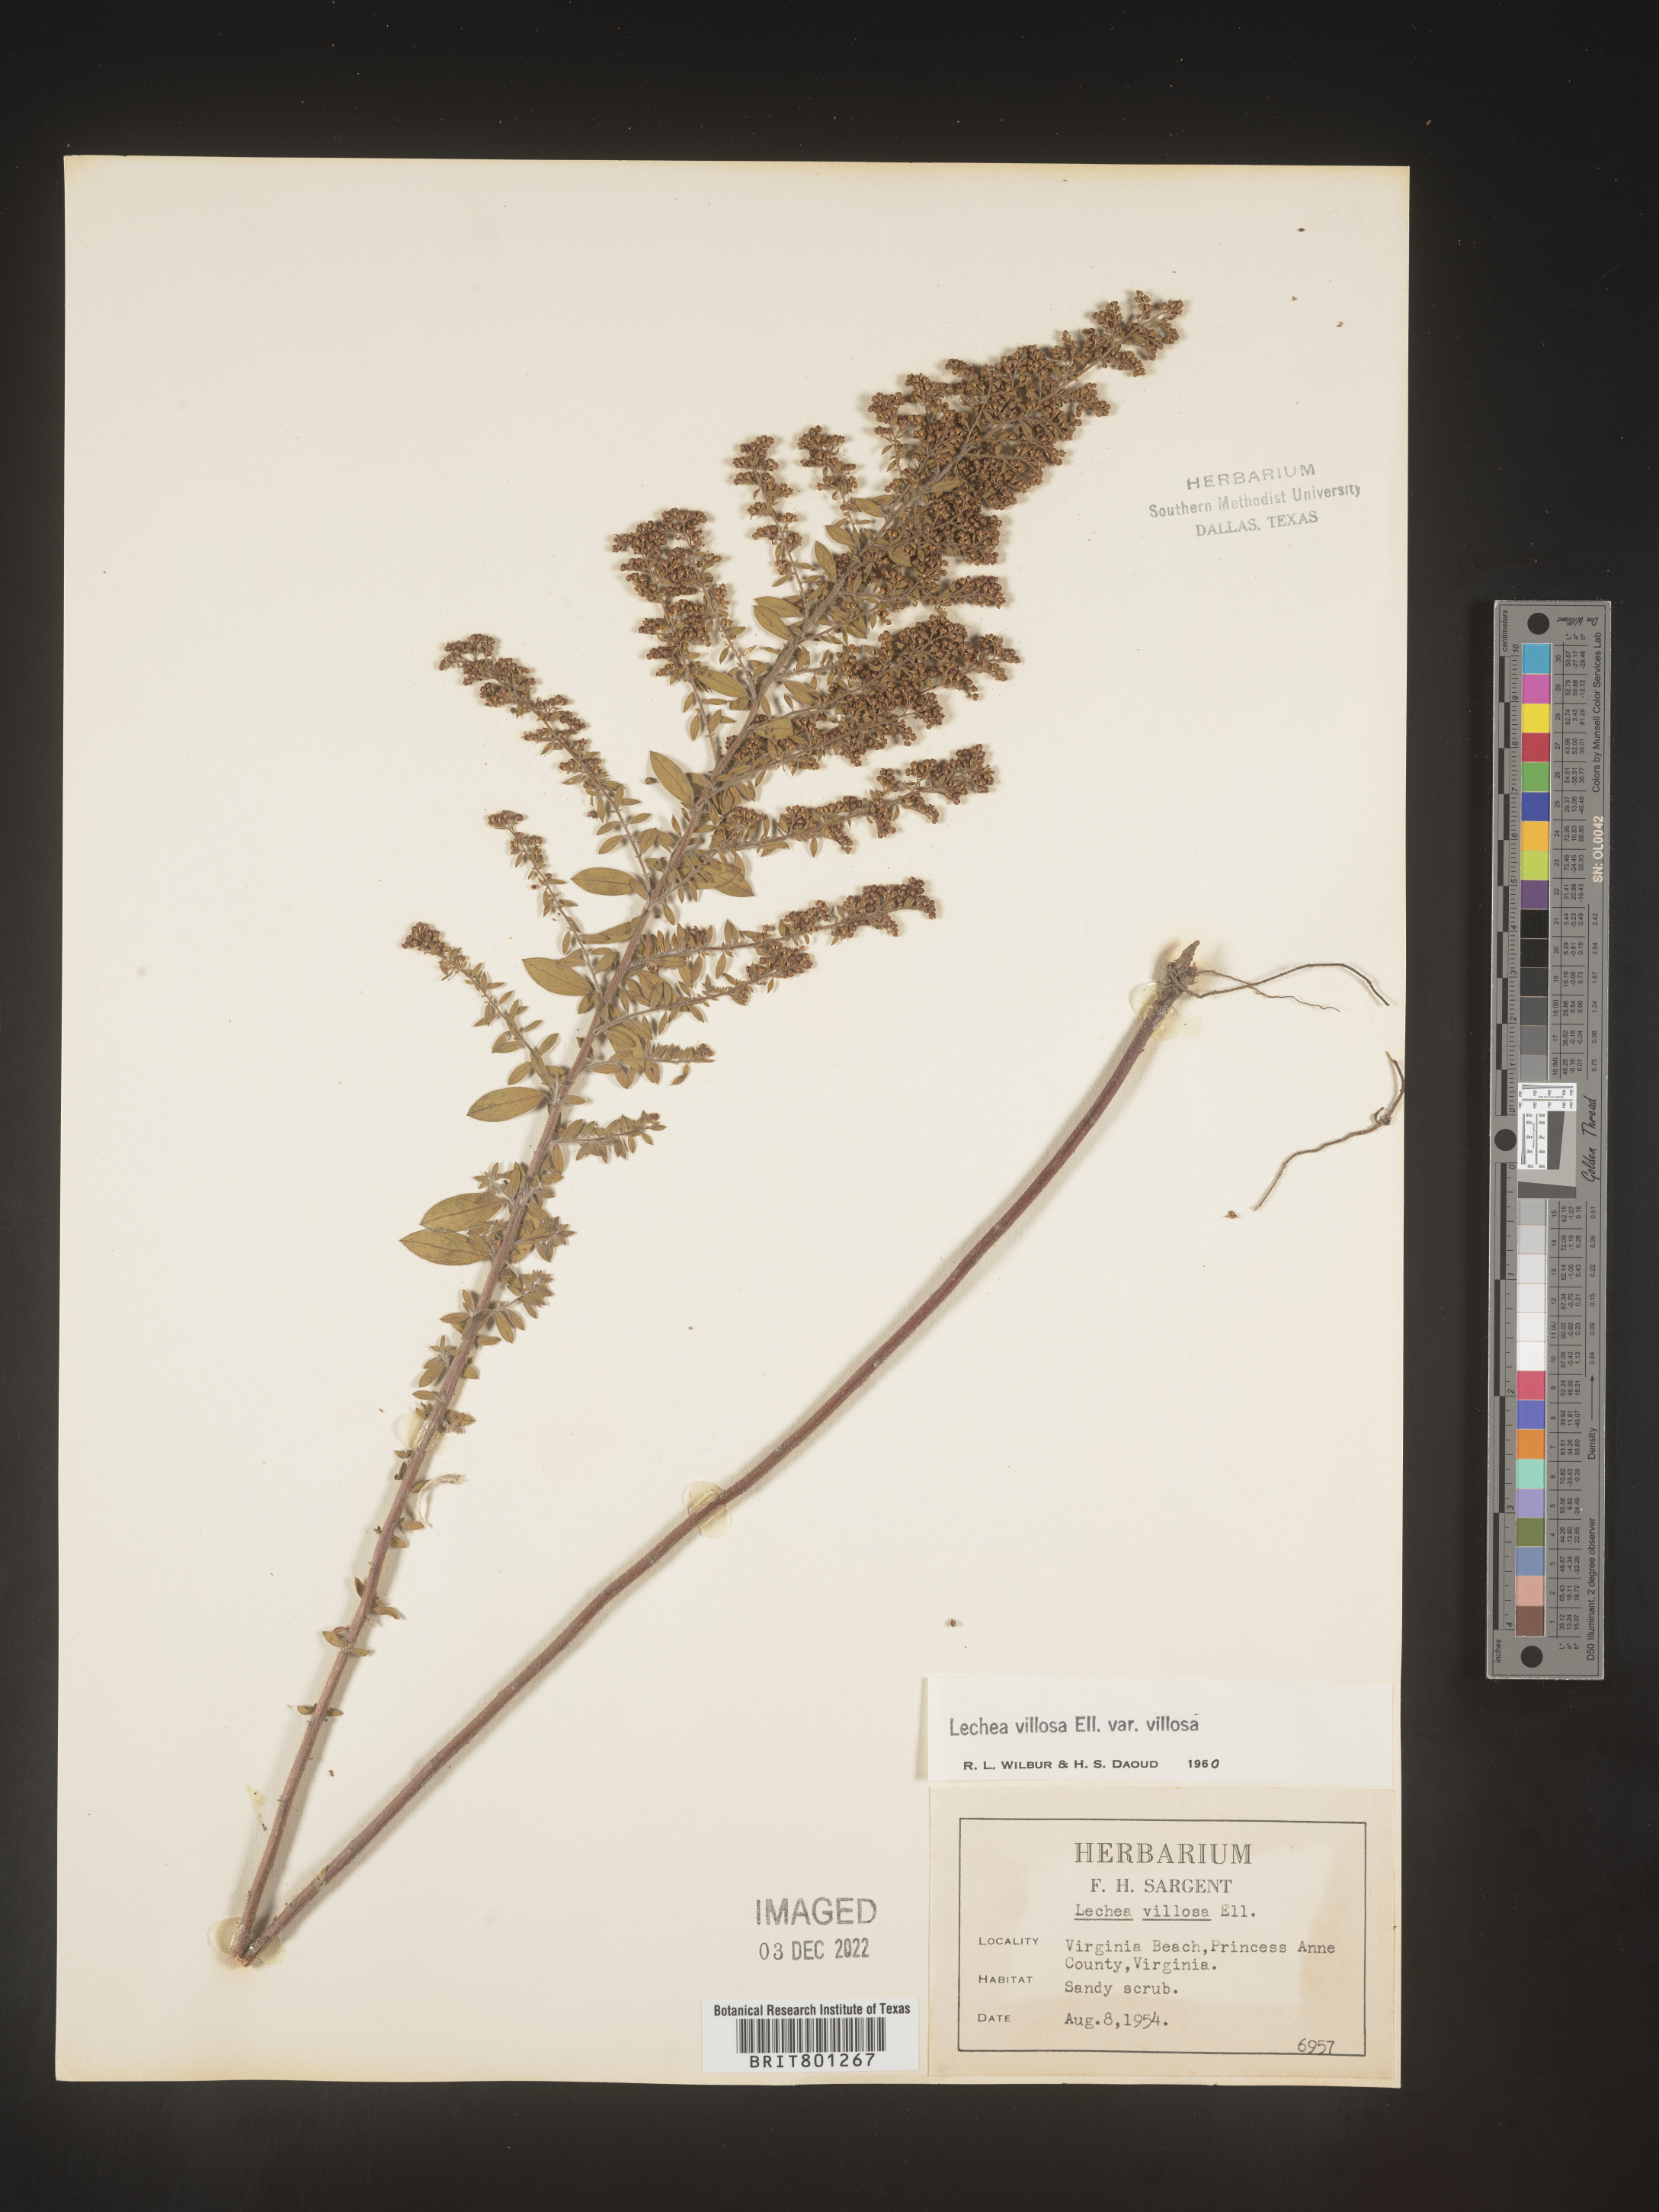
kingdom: Plantae
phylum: Tracheophyta
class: Magnoliopsida
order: Malvales
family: Cistaceae
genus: Lechea
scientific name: Lechea mucronata
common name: Hairy pinweed
